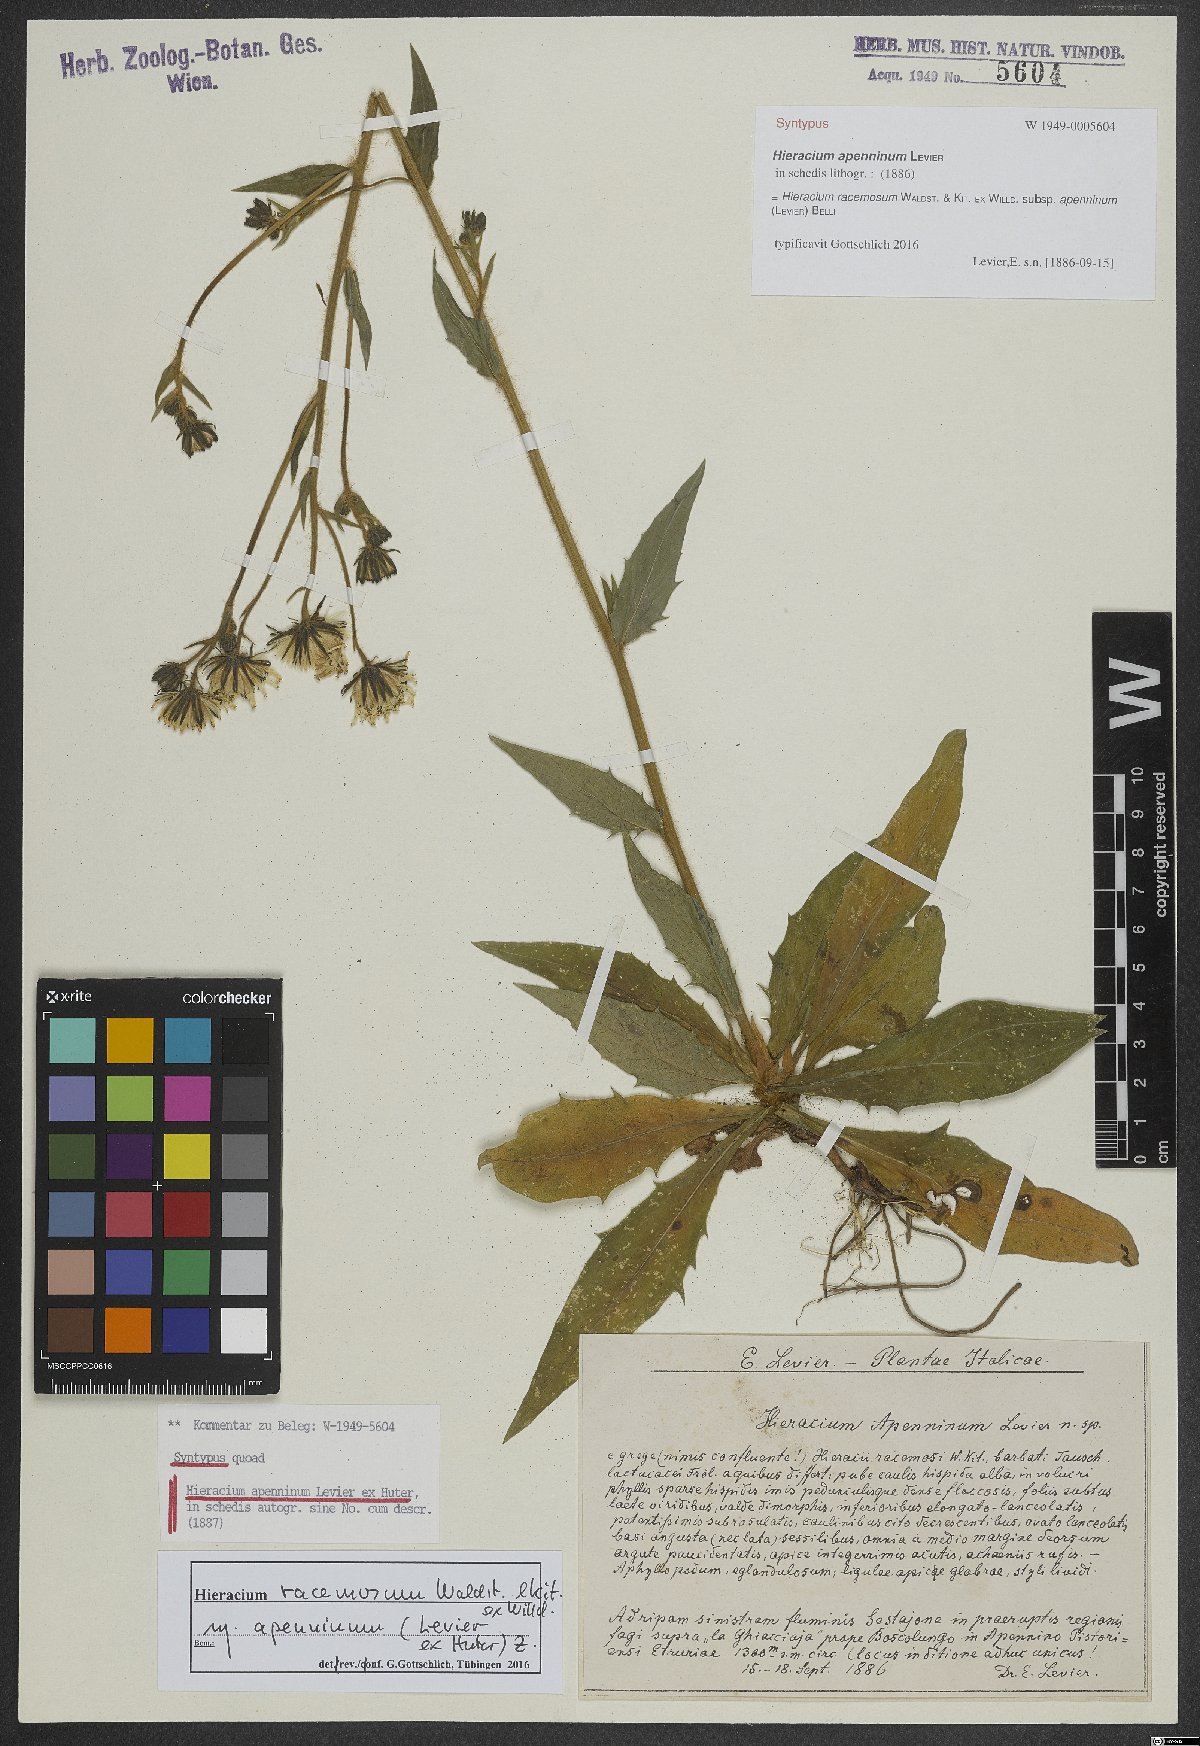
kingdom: Plantae
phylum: Tracheophyta
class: Magnoliopsida
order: Asterales
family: Asteraceae
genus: Hieracium
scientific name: Hieracium racemosum
